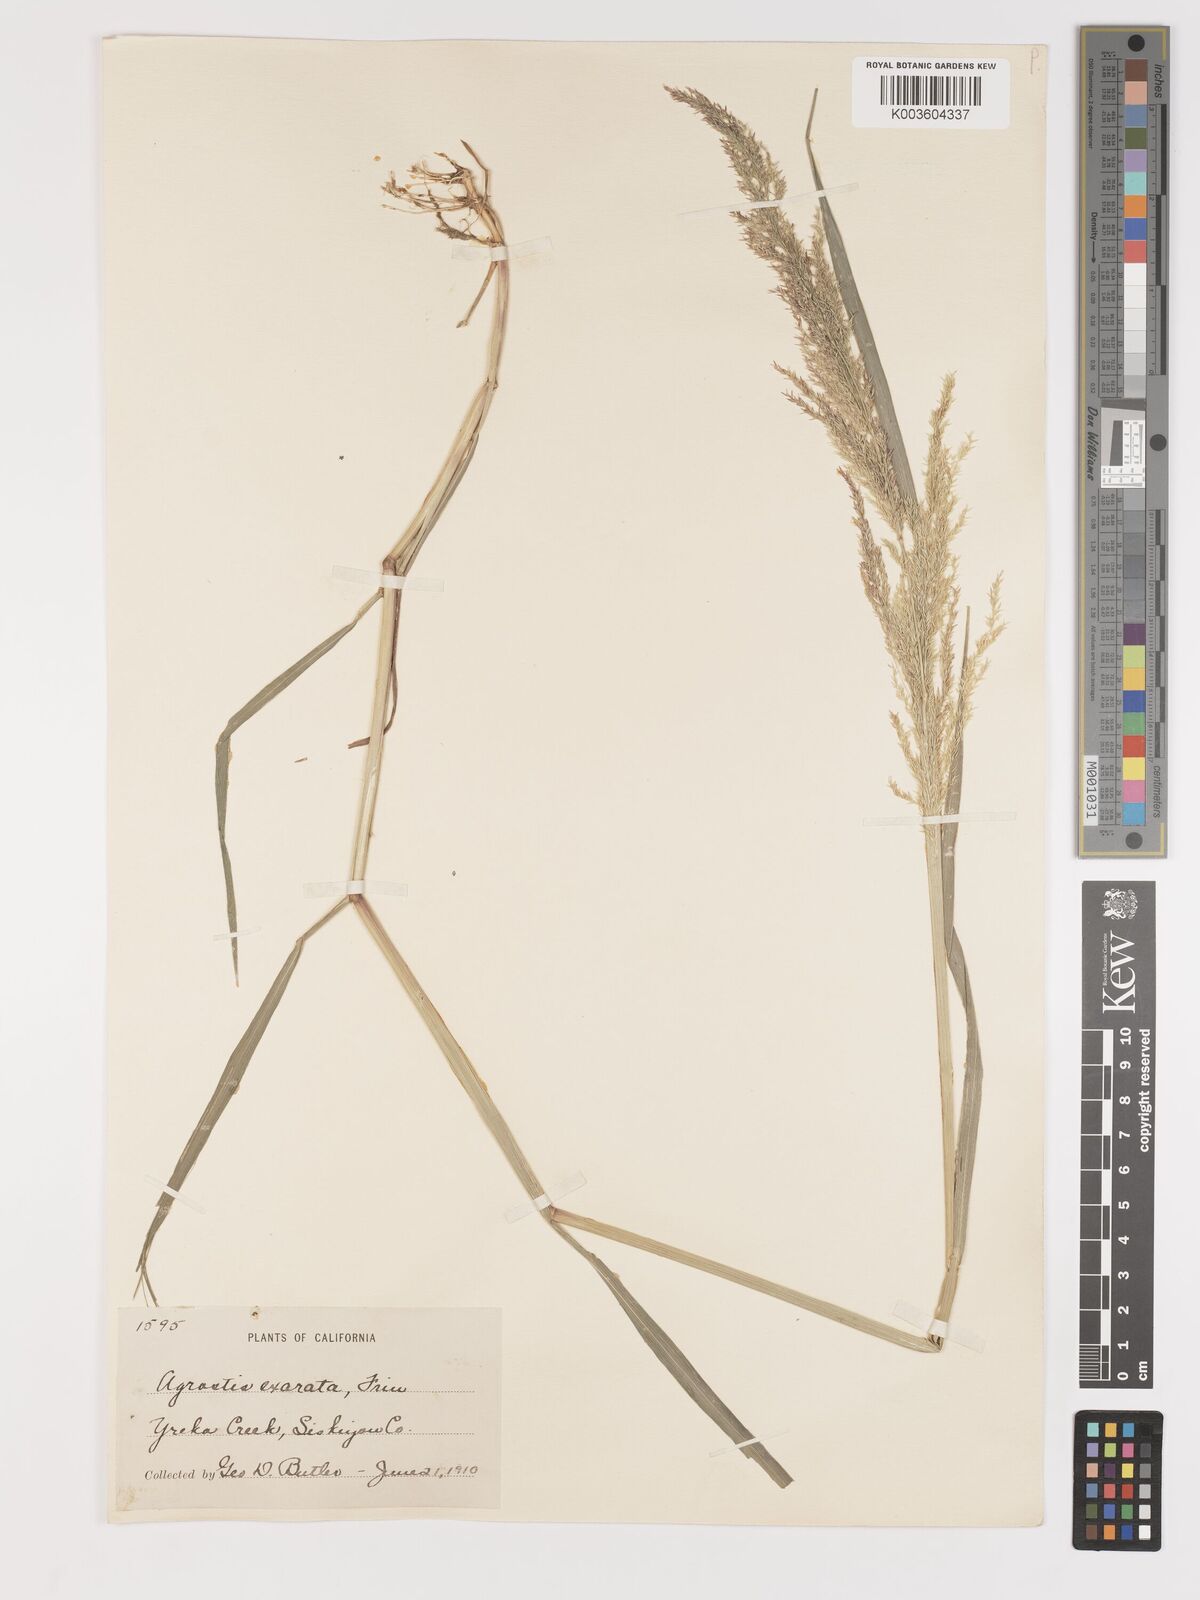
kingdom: Plantae
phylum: Tracheophyta
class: Liliopsida
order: Poales
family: Poaceae
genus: Agrostis
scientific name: Agrostis exarata
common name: Spike bent
